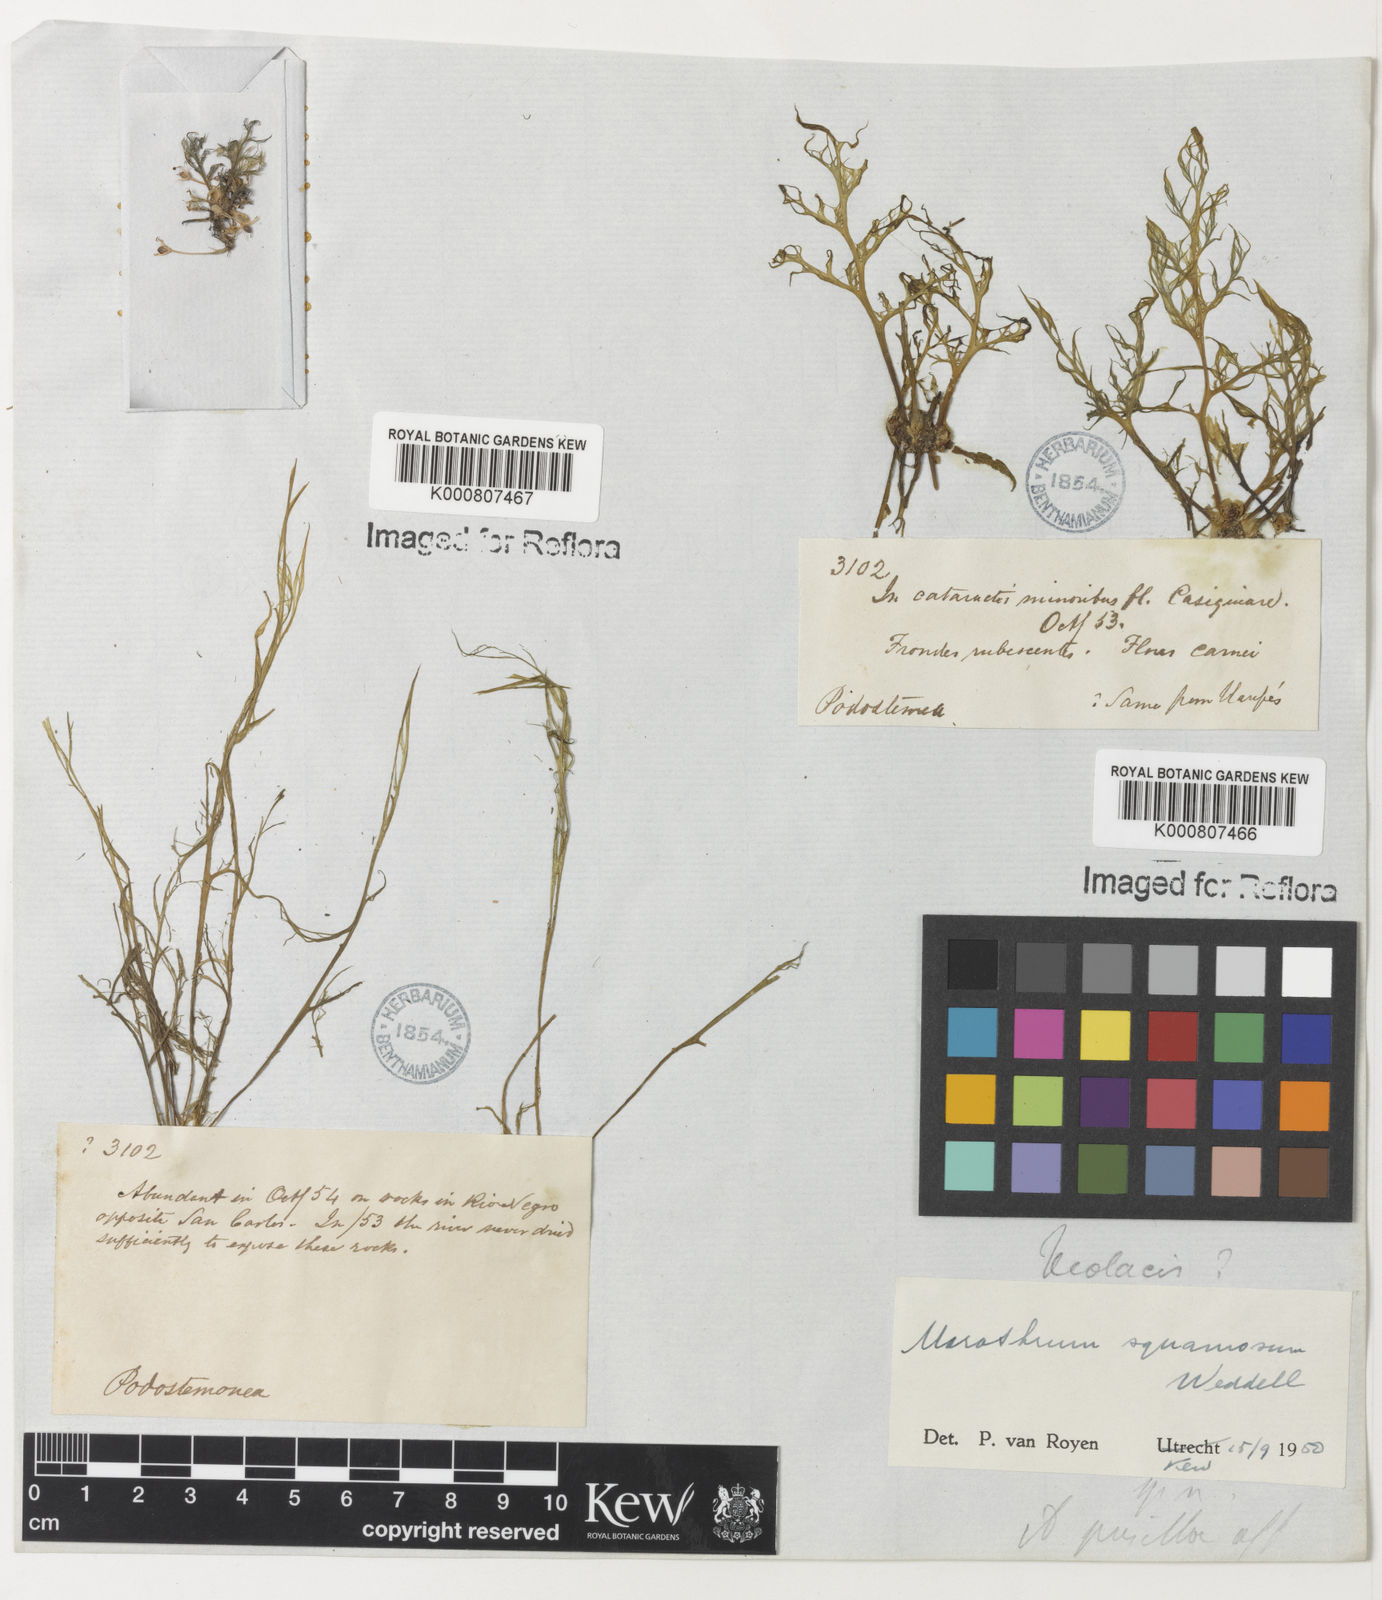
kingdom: Plantae
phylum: Tracheophyta
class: Magnoliopsida
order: Malpighiales
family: Podostemaceae
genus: Rhyncholacis
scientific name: Rhyncholacis squamosa
